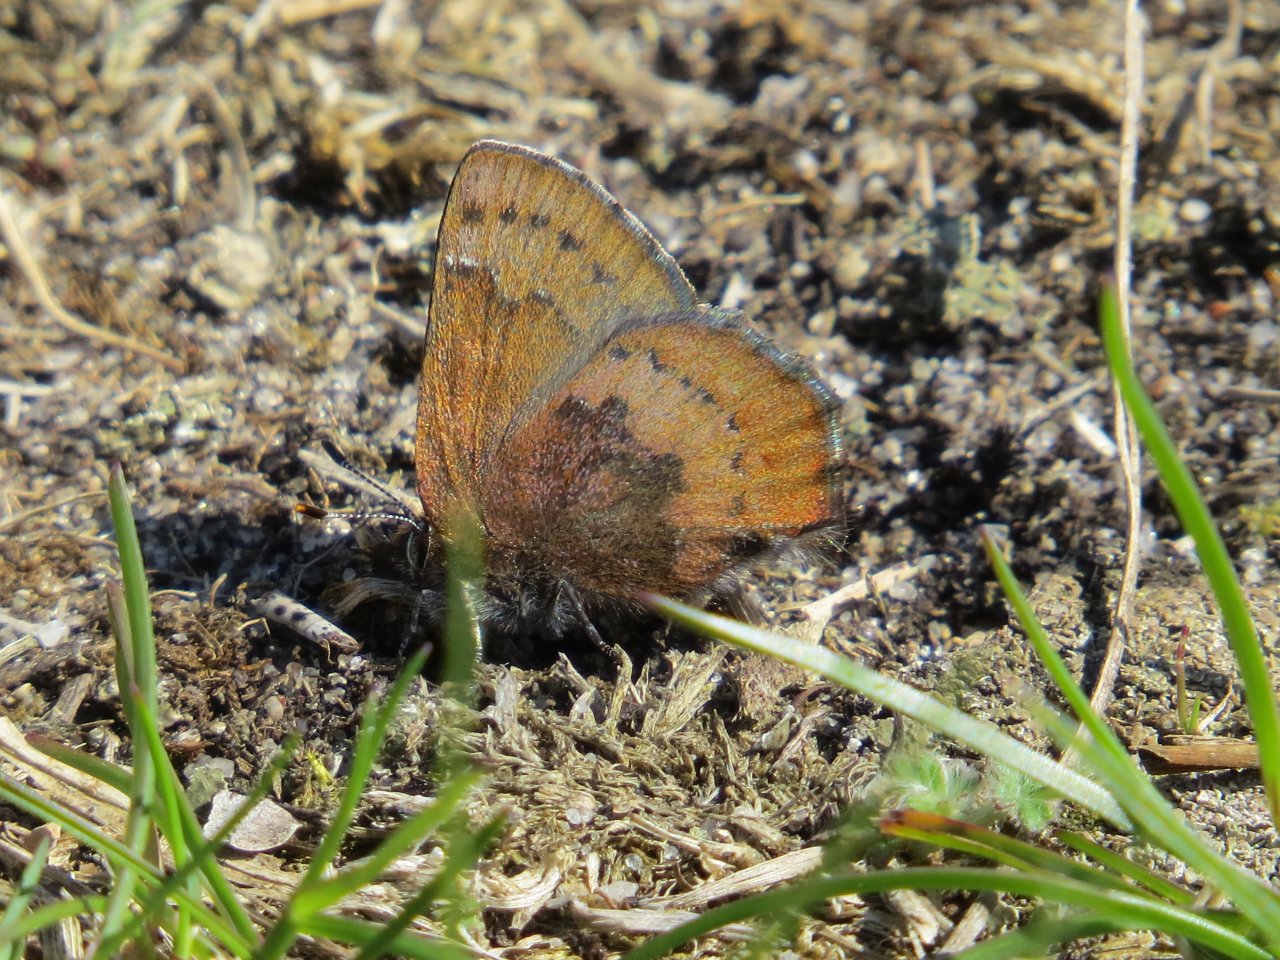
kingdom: Animalia
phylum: Arthropoda
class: Insecta
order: Lepidoptera
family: Lycaenidae
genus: Incisalia
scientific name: Incisalia irioides
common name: Brown Elfin
